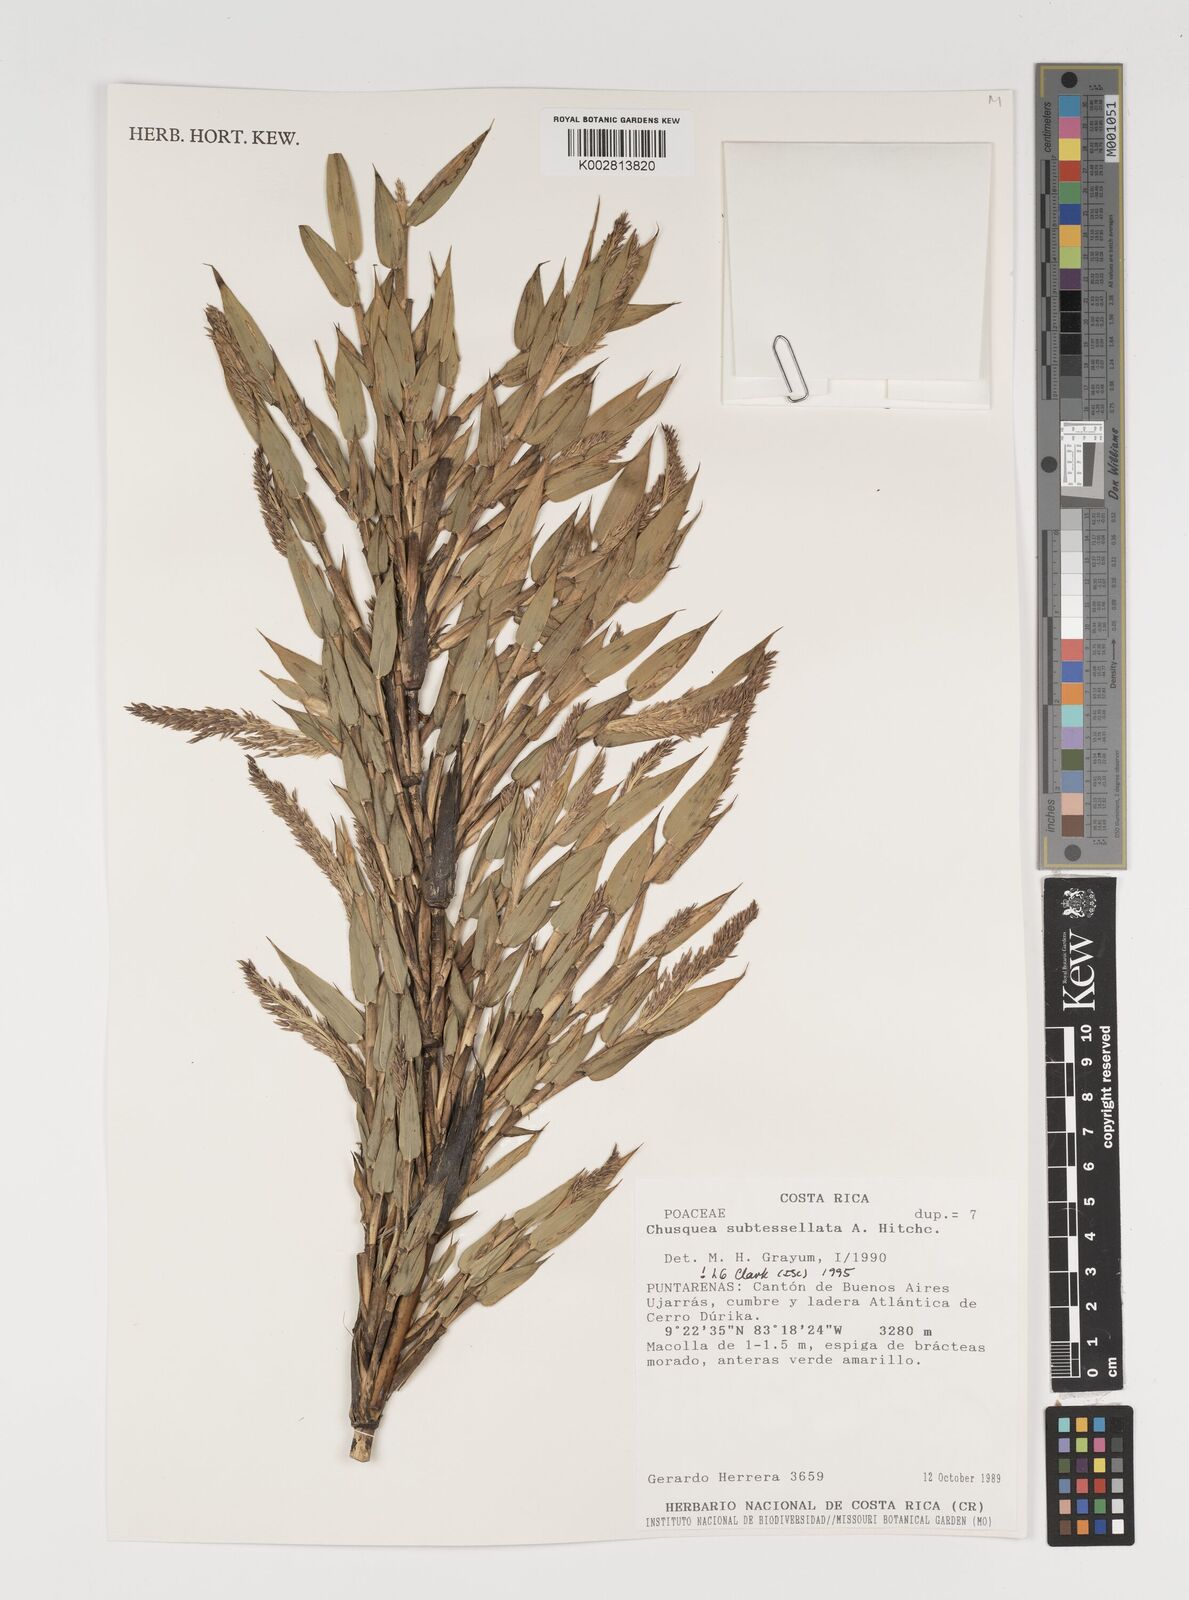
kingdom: Plantae
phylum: Tracheophyta
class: Liliopsida
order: Poales
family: Poaceae
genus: Chusquea
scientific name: Chusquea subtessellata
